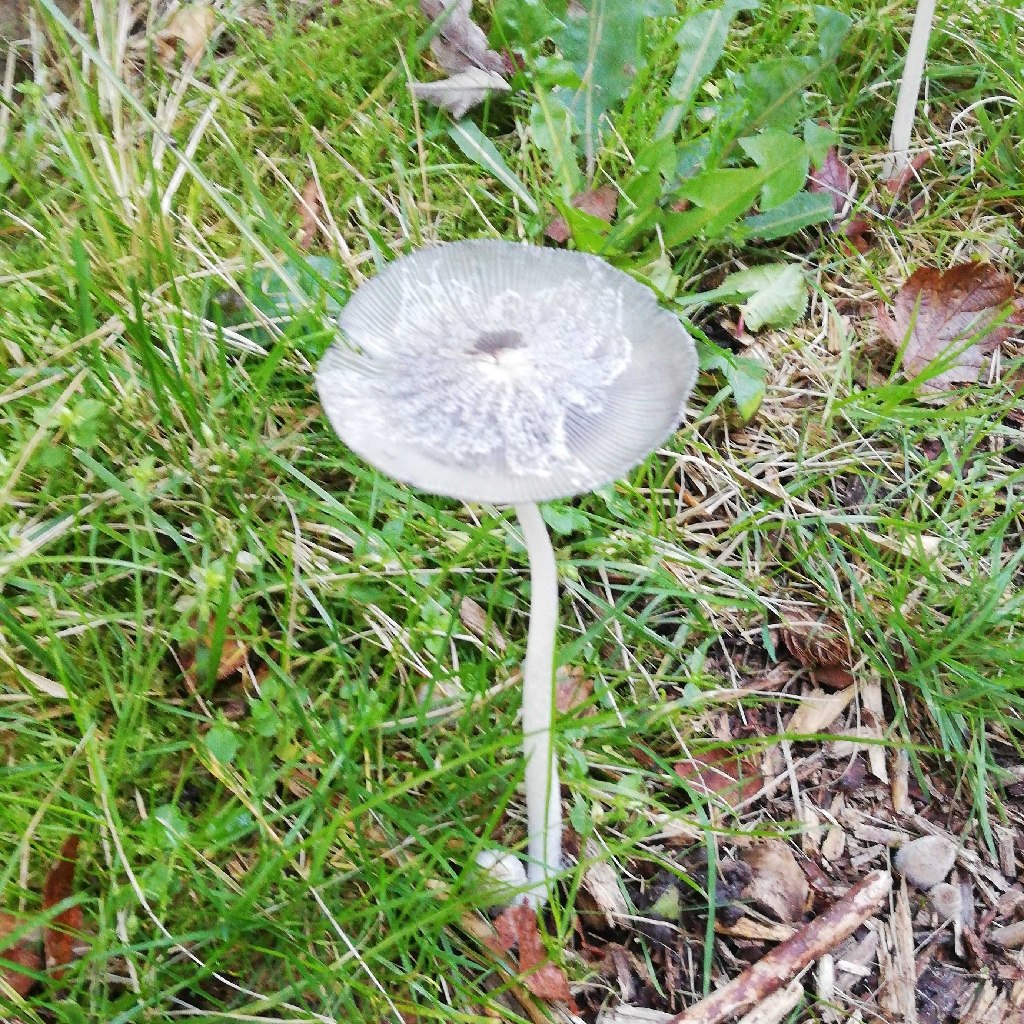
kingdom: Fungi
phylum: Basidiomycota
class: Agaricomycetes
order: Agaricales
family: Psathyrellaceae
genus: Coprinopsis
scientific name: Coprinopsis lagopus
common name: dunstokket blækhat
